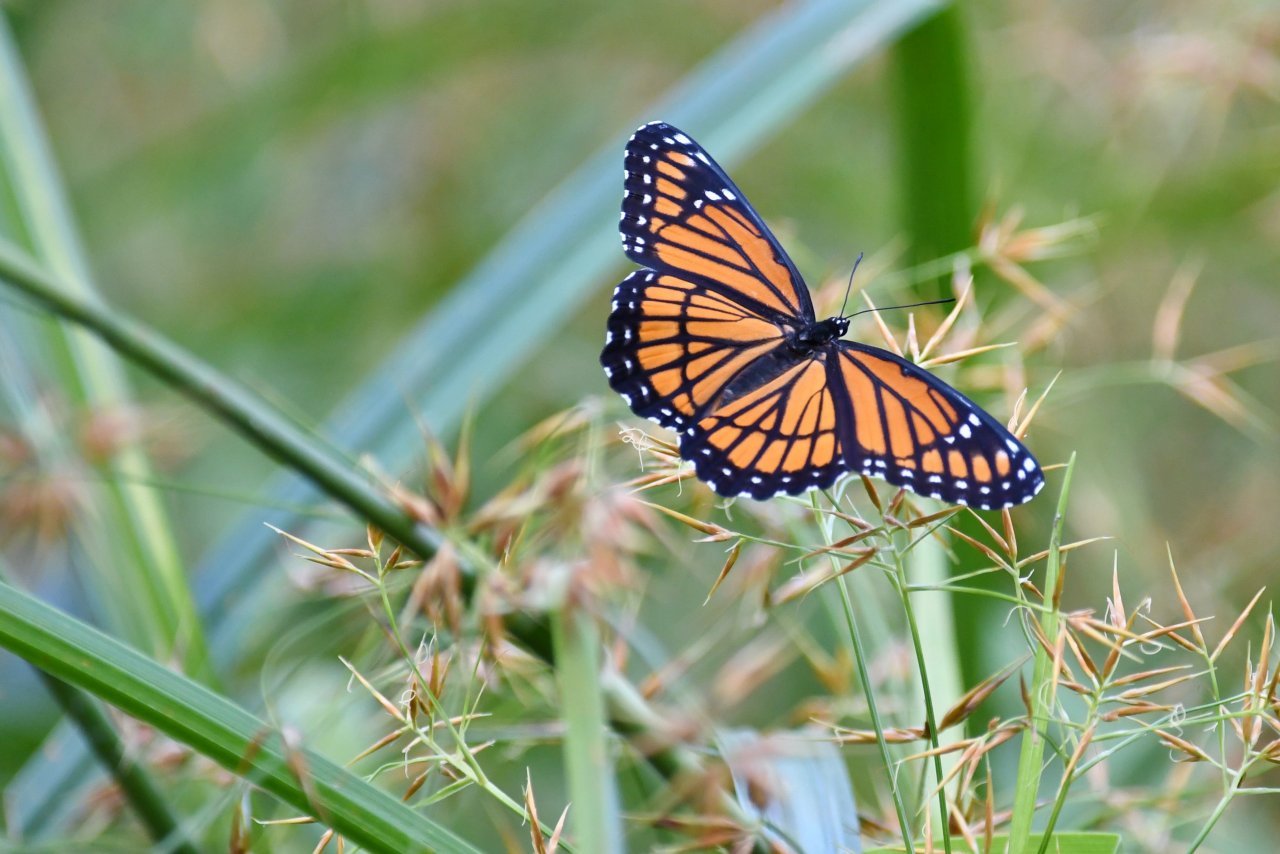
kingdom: Animalia
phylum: Arthropoda
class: Insecta
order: Lepidoptera
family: Nymphalidae
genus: Limenitis
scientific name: Limenitis archippus
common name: Viceroy
